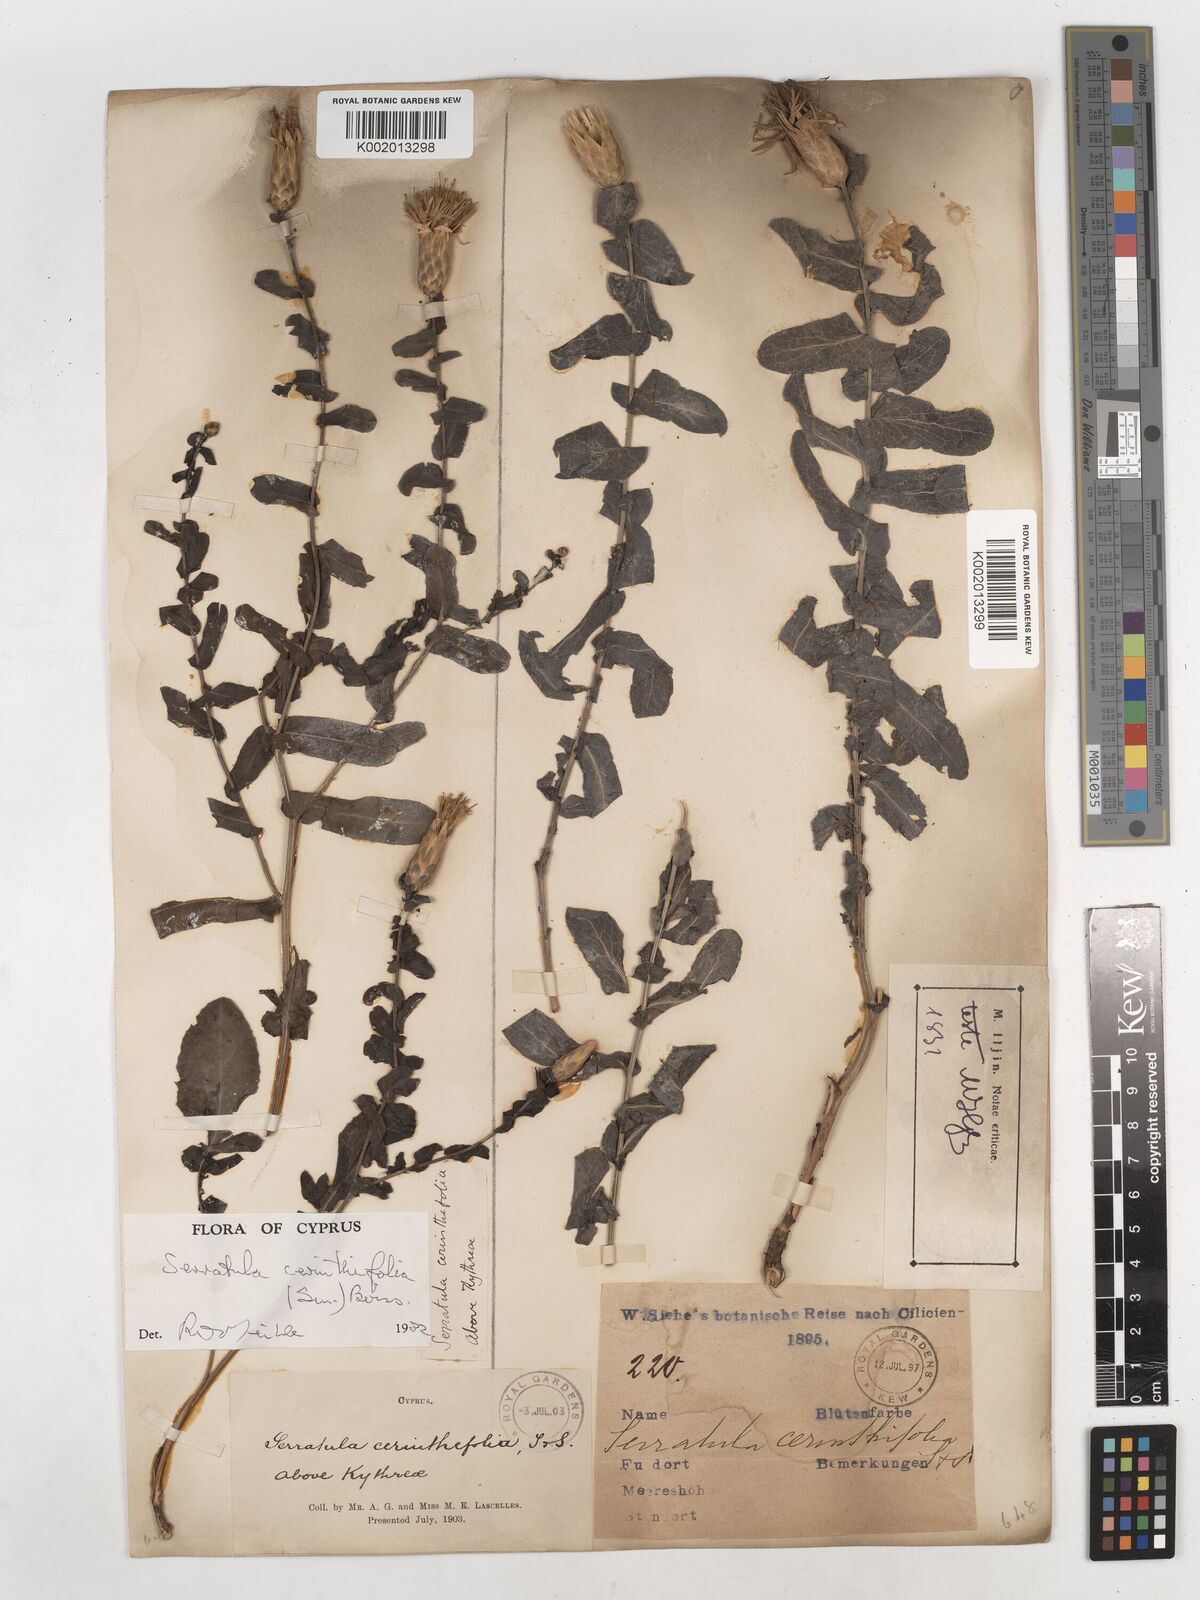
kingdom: Plantae
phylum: Tracheophyta
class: Magnoliopsida
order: Asterales
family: Asteraceae
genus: Klasea
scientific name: Klasea cerinthifolia
